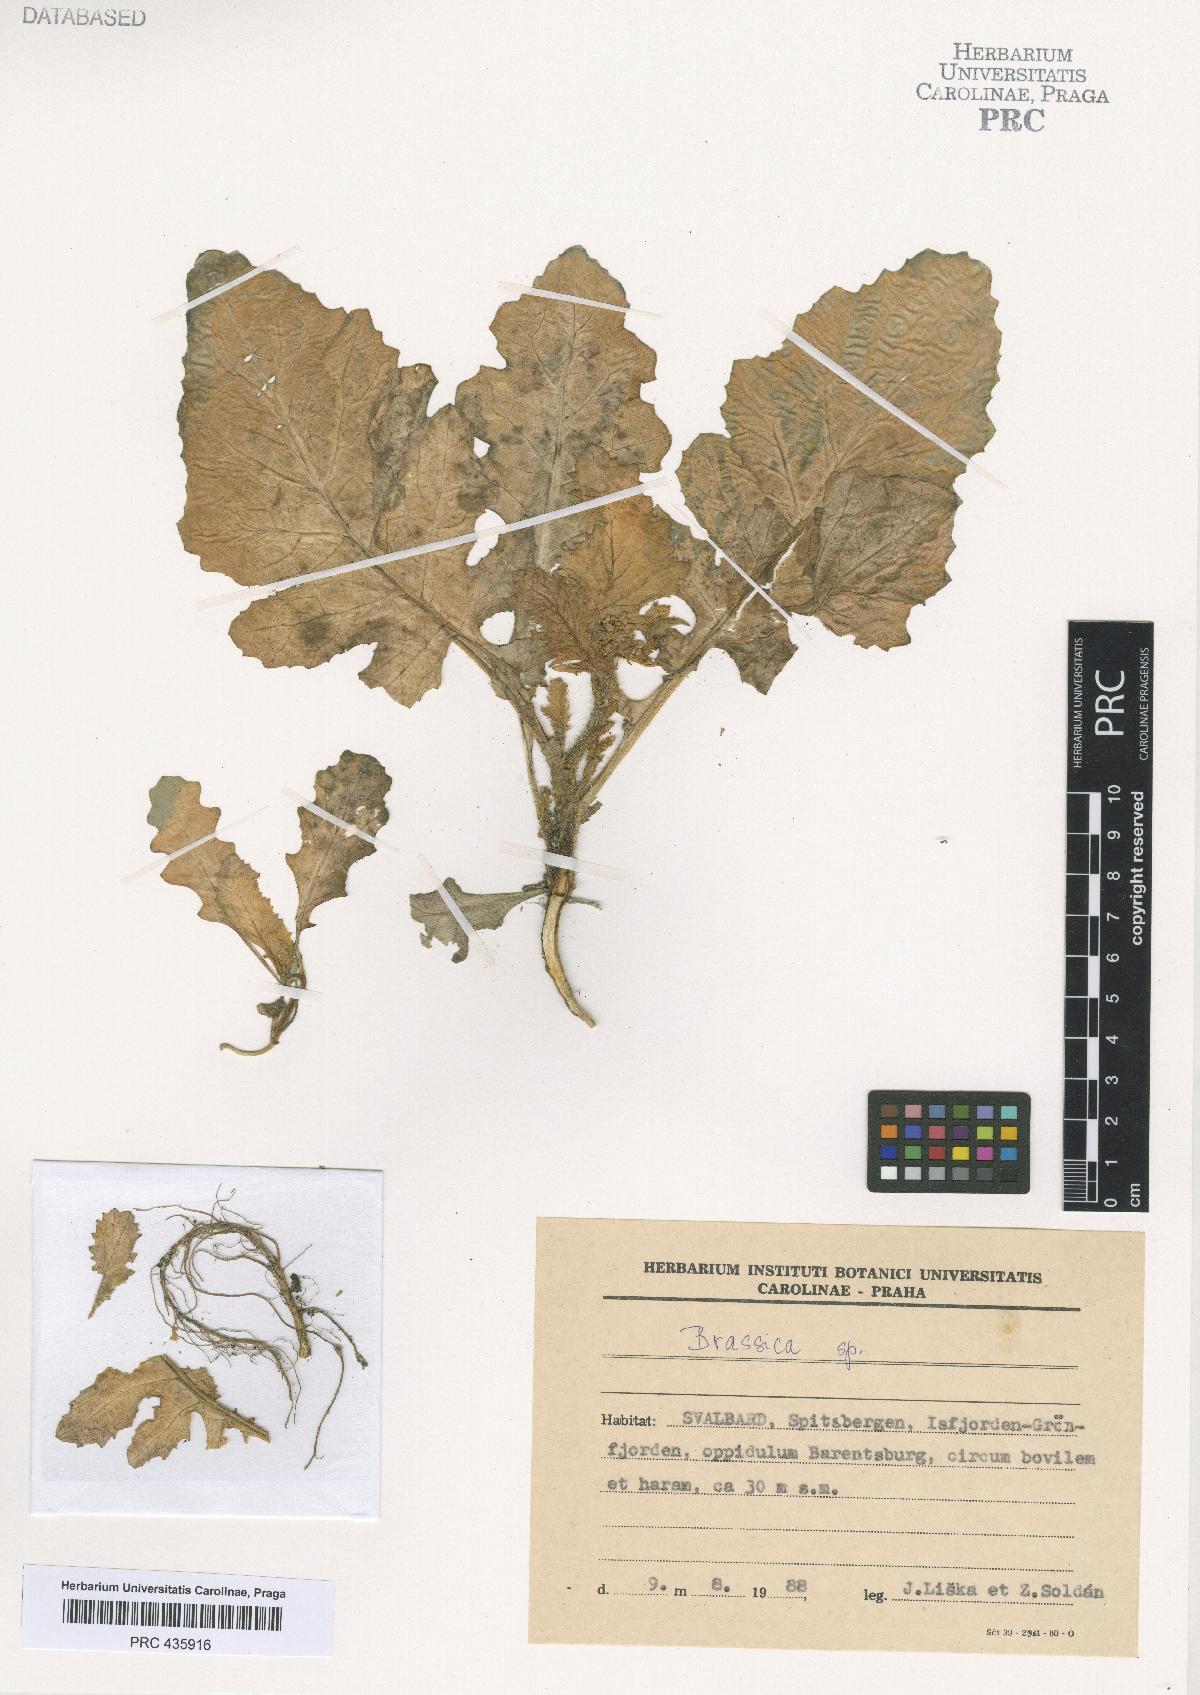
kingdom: Plantae
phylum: Tracheophyta
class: Magnoliopsida
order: Brassicales
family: Brassicaceae
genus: Brassica
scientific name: Brassica
